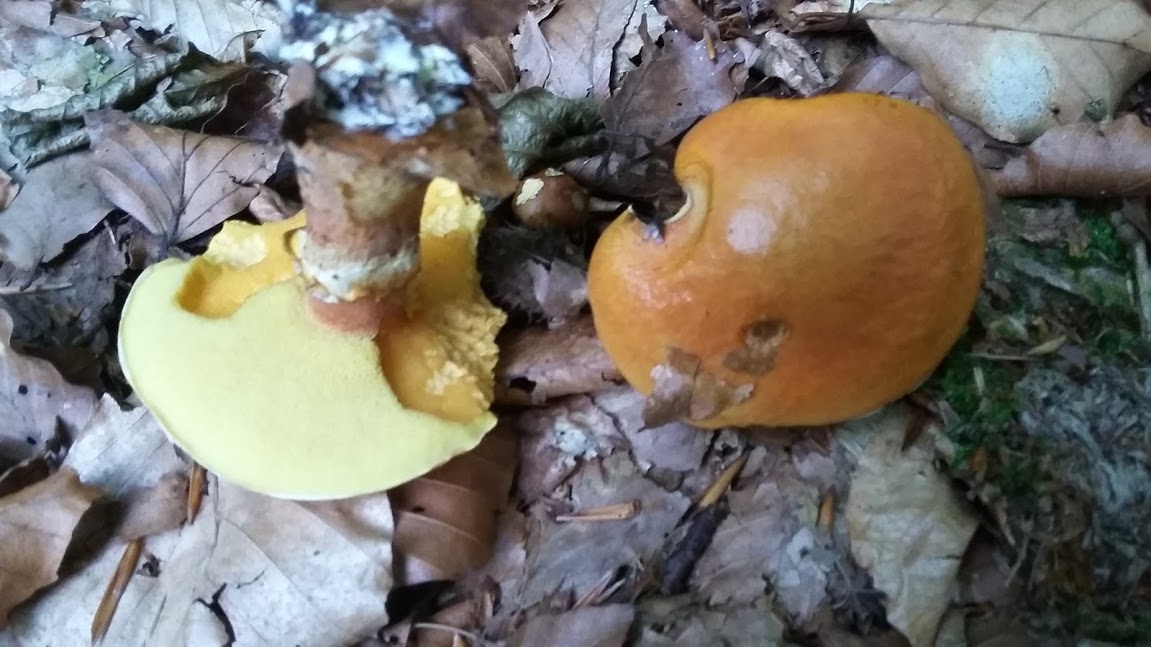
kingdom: Fungi
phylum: Basidiomycota
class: Agaricomycetes
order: Boletales
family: Suillaceae
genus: Suillus
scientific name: Suillus grevillei
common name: lærke-slimrørhat
